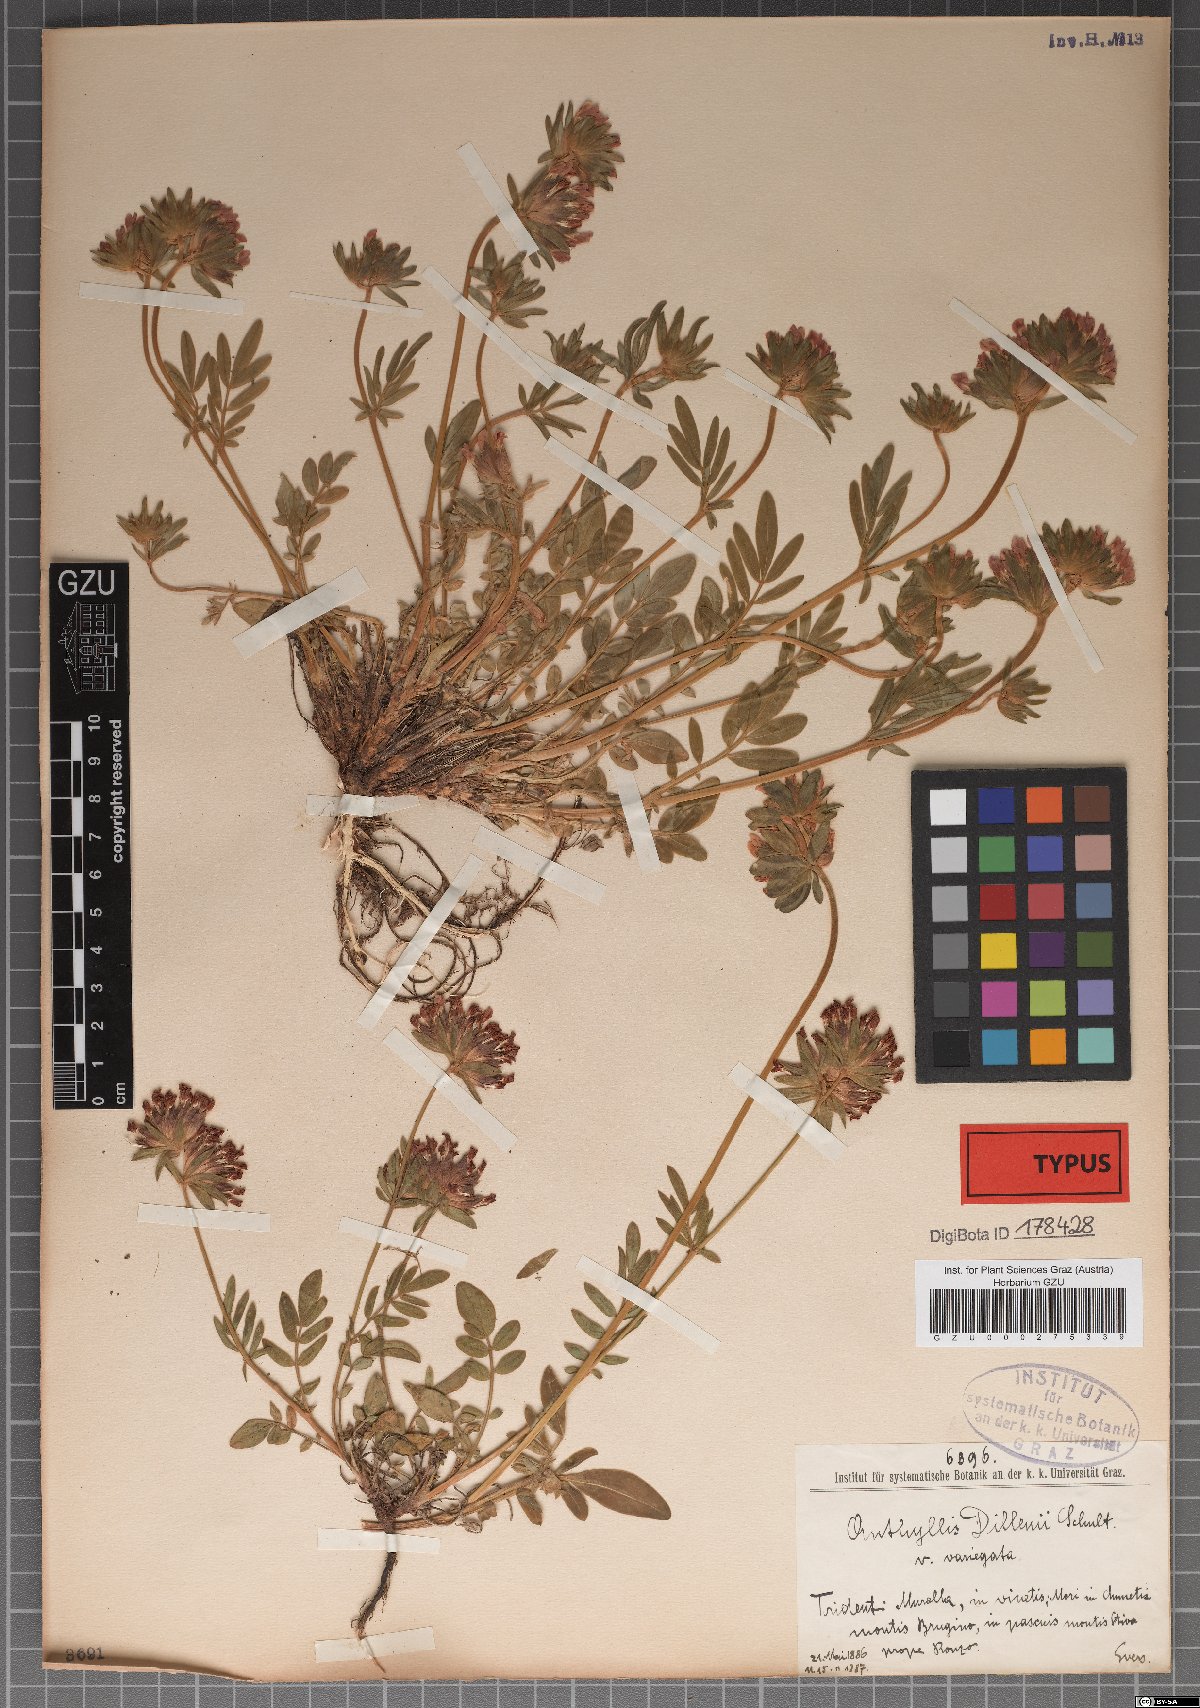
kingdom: Plantae
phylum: Tracheophyta
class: Magnoliopsida
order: Fabales
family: Fabaceae
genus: Anthyllis
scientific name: Anthyllis vulneraria
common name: Kidney vetch
